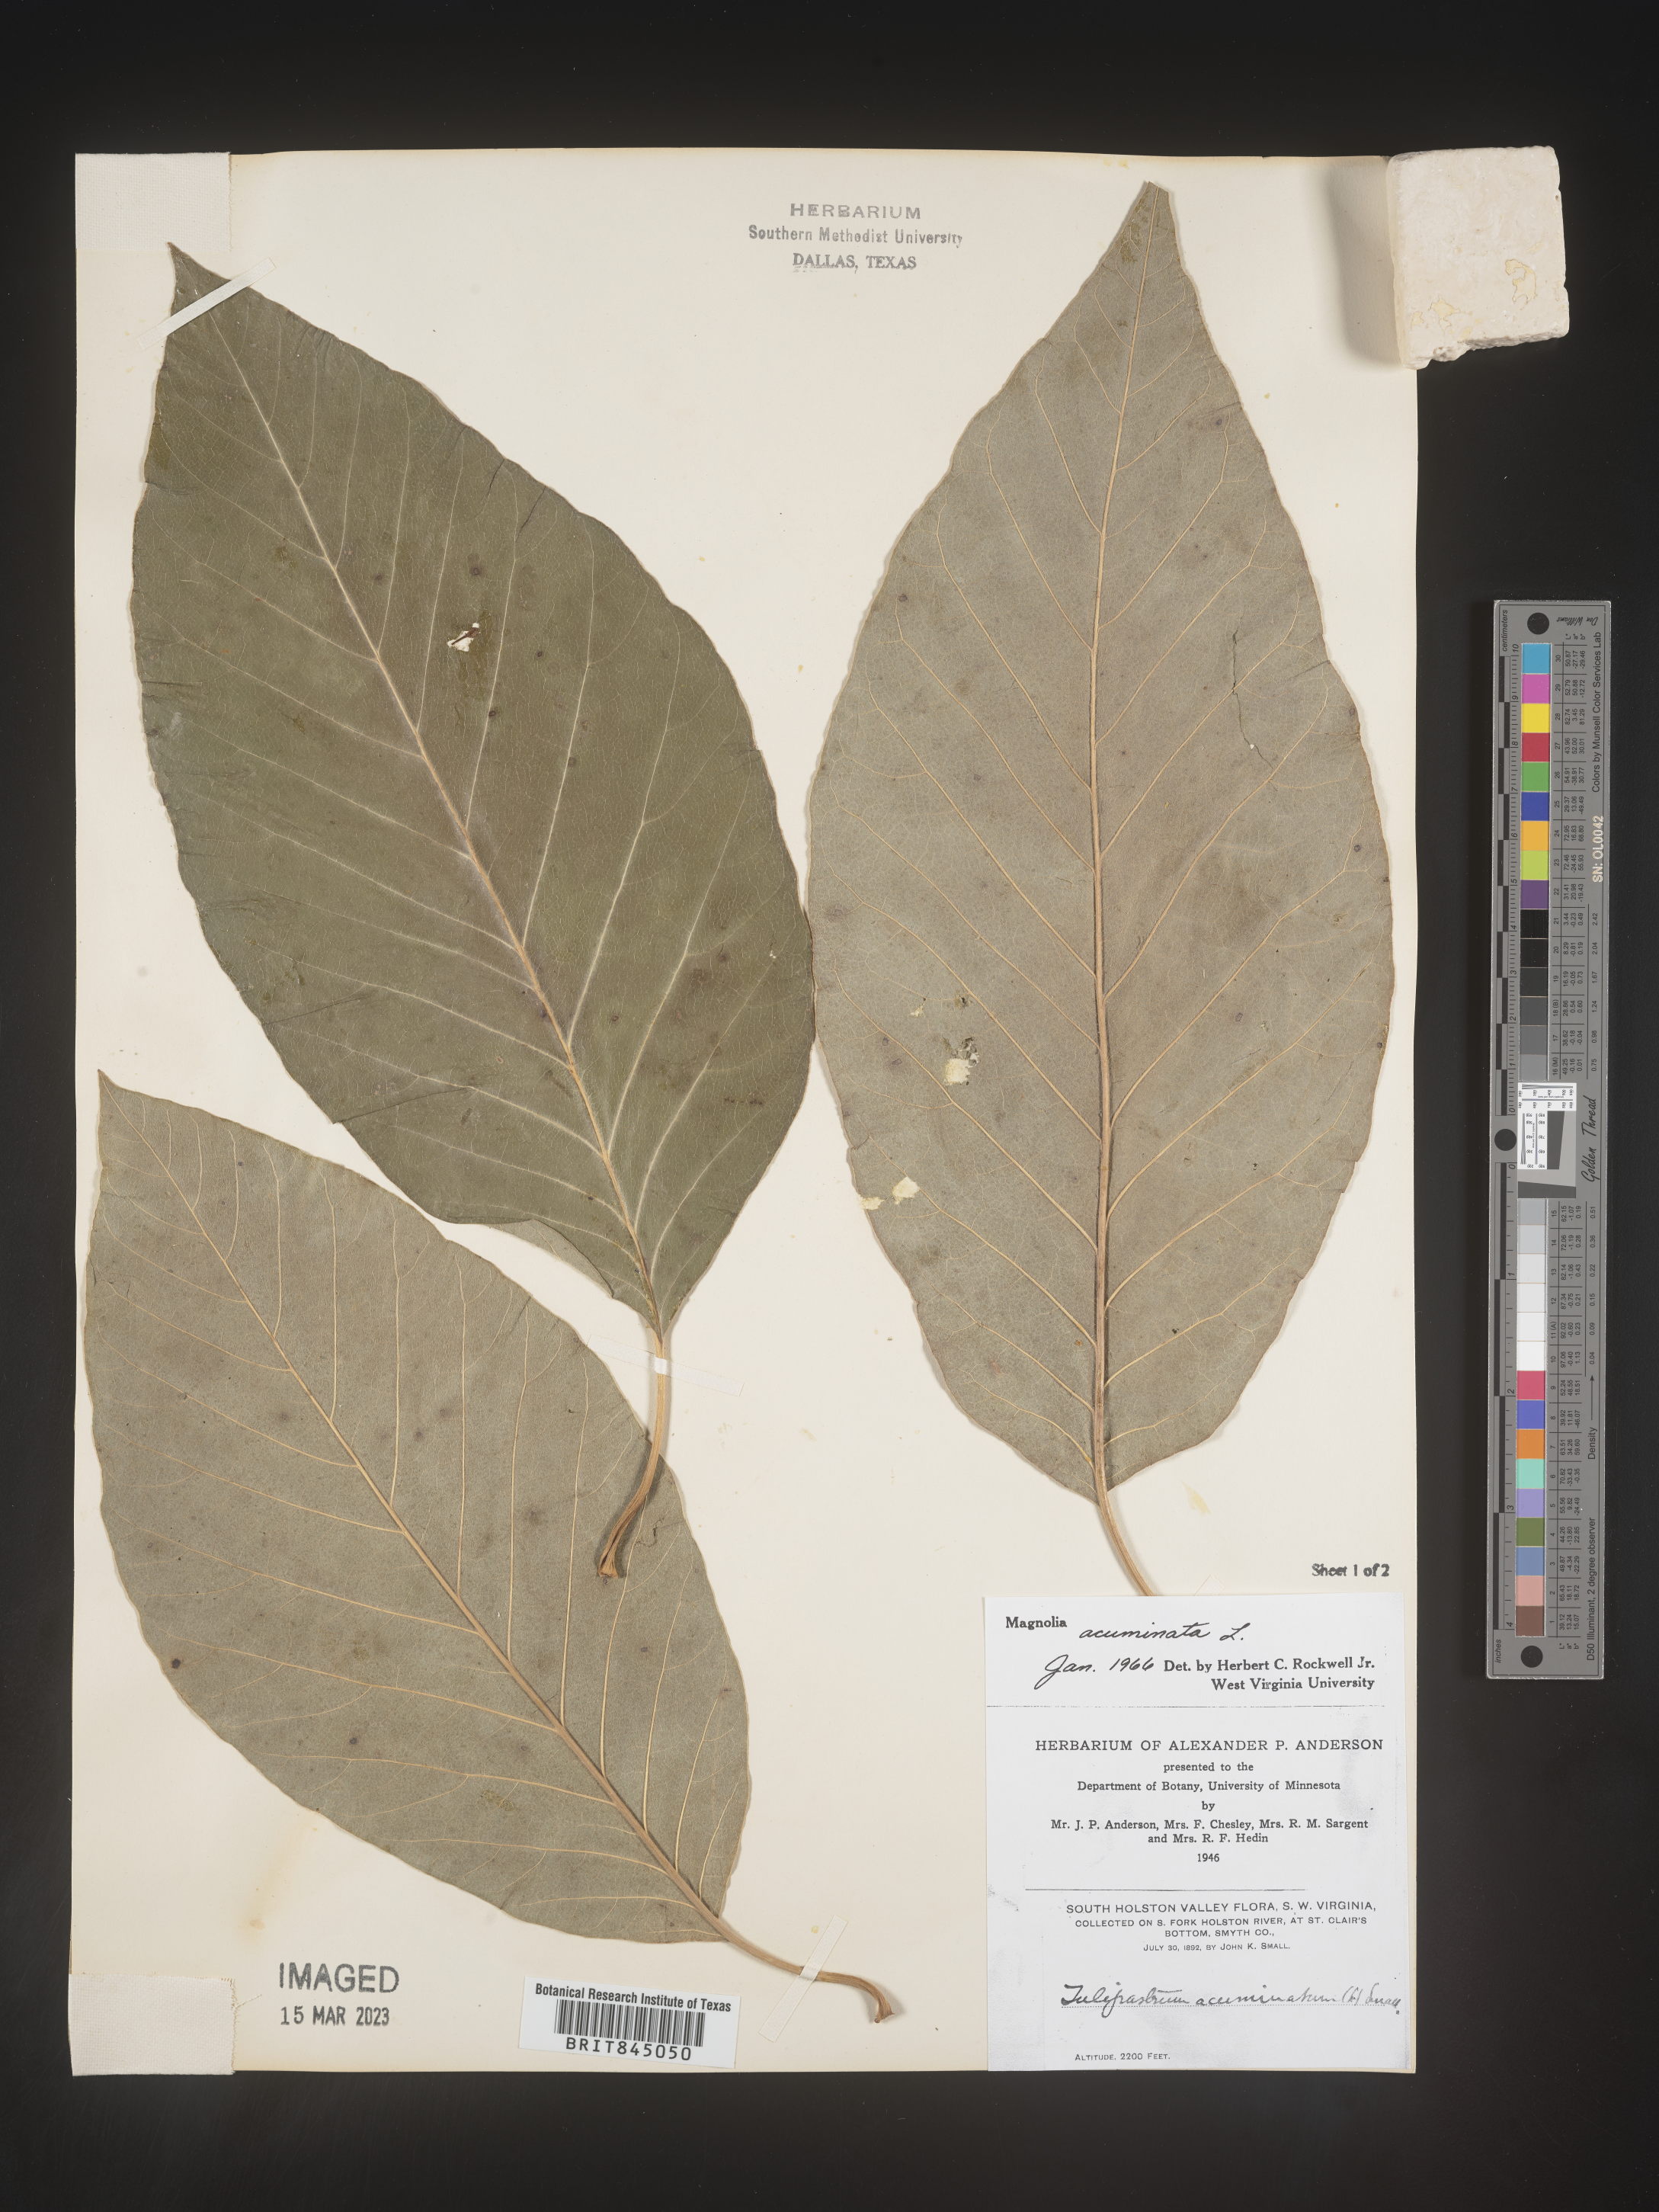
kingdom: Plantae
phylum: Tracheophyta
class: Magnoliopsida
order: Magnoliales
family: Magnoliaceae
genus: Magnolia
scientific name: Magnolia acuminata
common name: Cucumber magnolia
